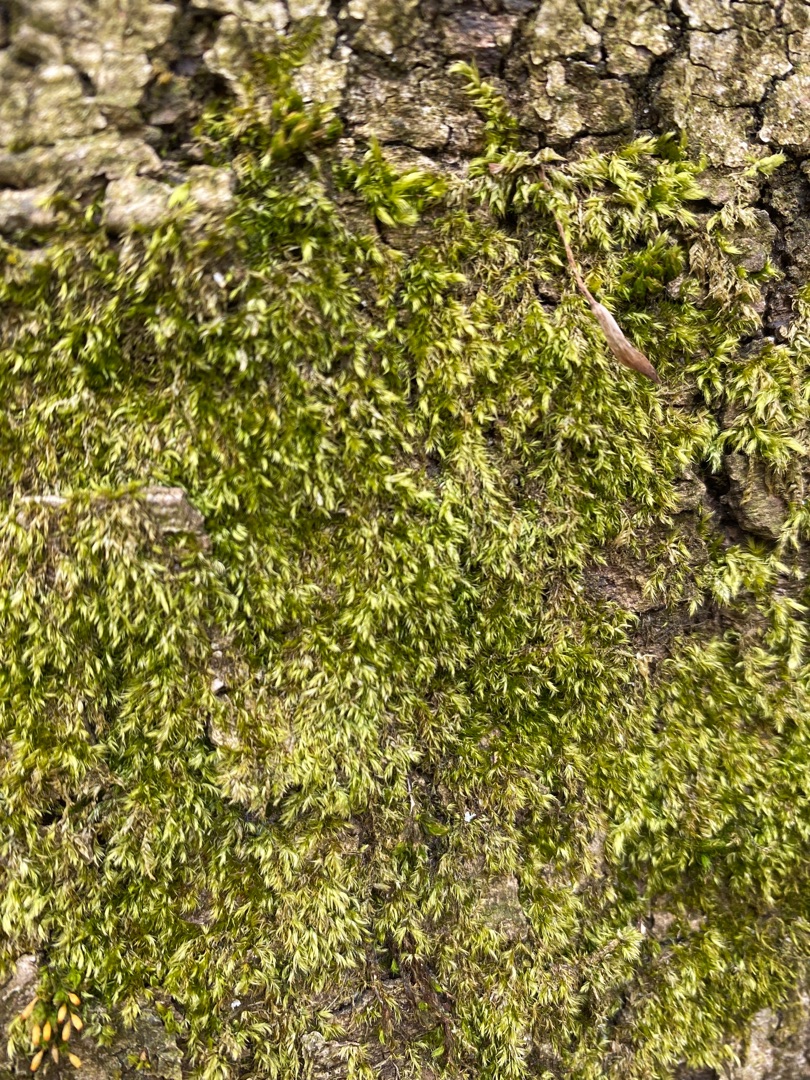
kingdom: Plantae
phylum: Bryophyta
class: Bryopsida
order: Hypnales
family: Brachytheciaceae
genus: Brachythecium
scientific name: Brachythecium rutabulum
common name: Almindelig kortkapsel
